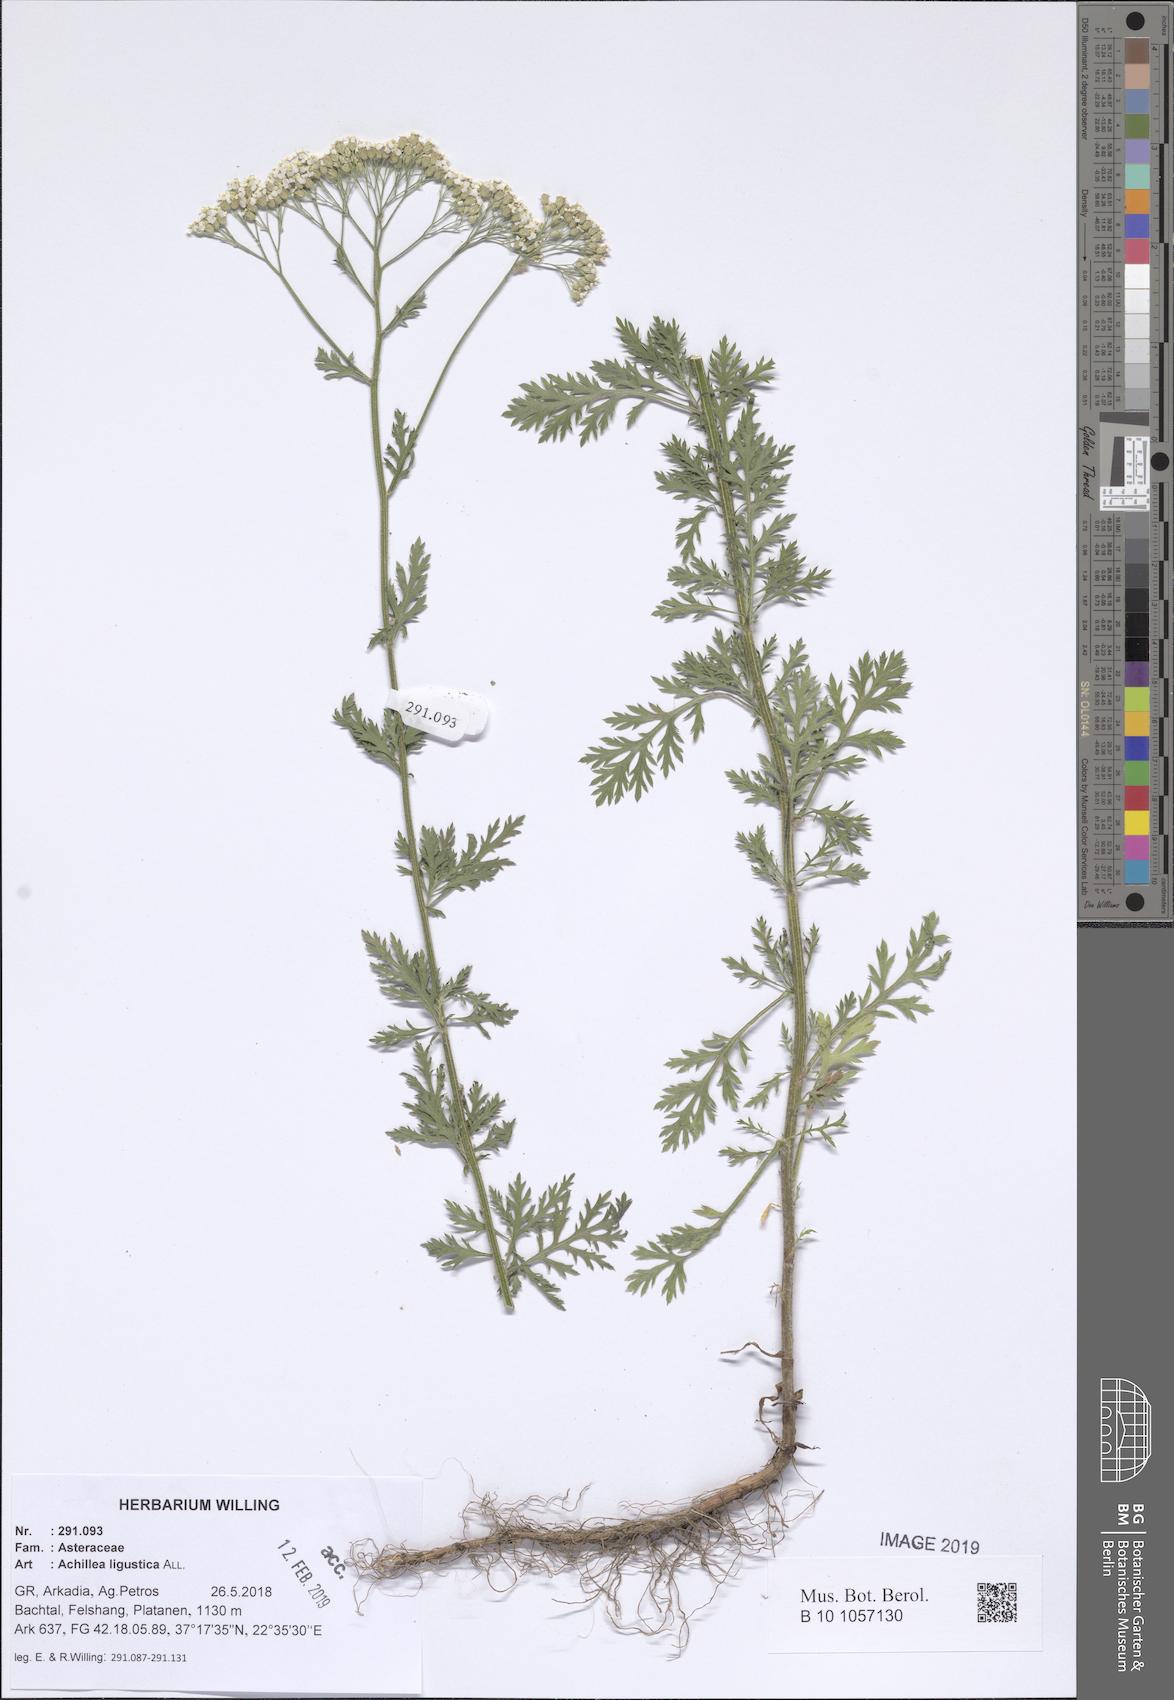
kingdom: Plantae
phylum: Tracheophyta
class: Magnoliopsida
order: Asterales
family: Asteraceae
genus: Achillea
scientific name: Achillea ligustica
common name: Southern yarrow
